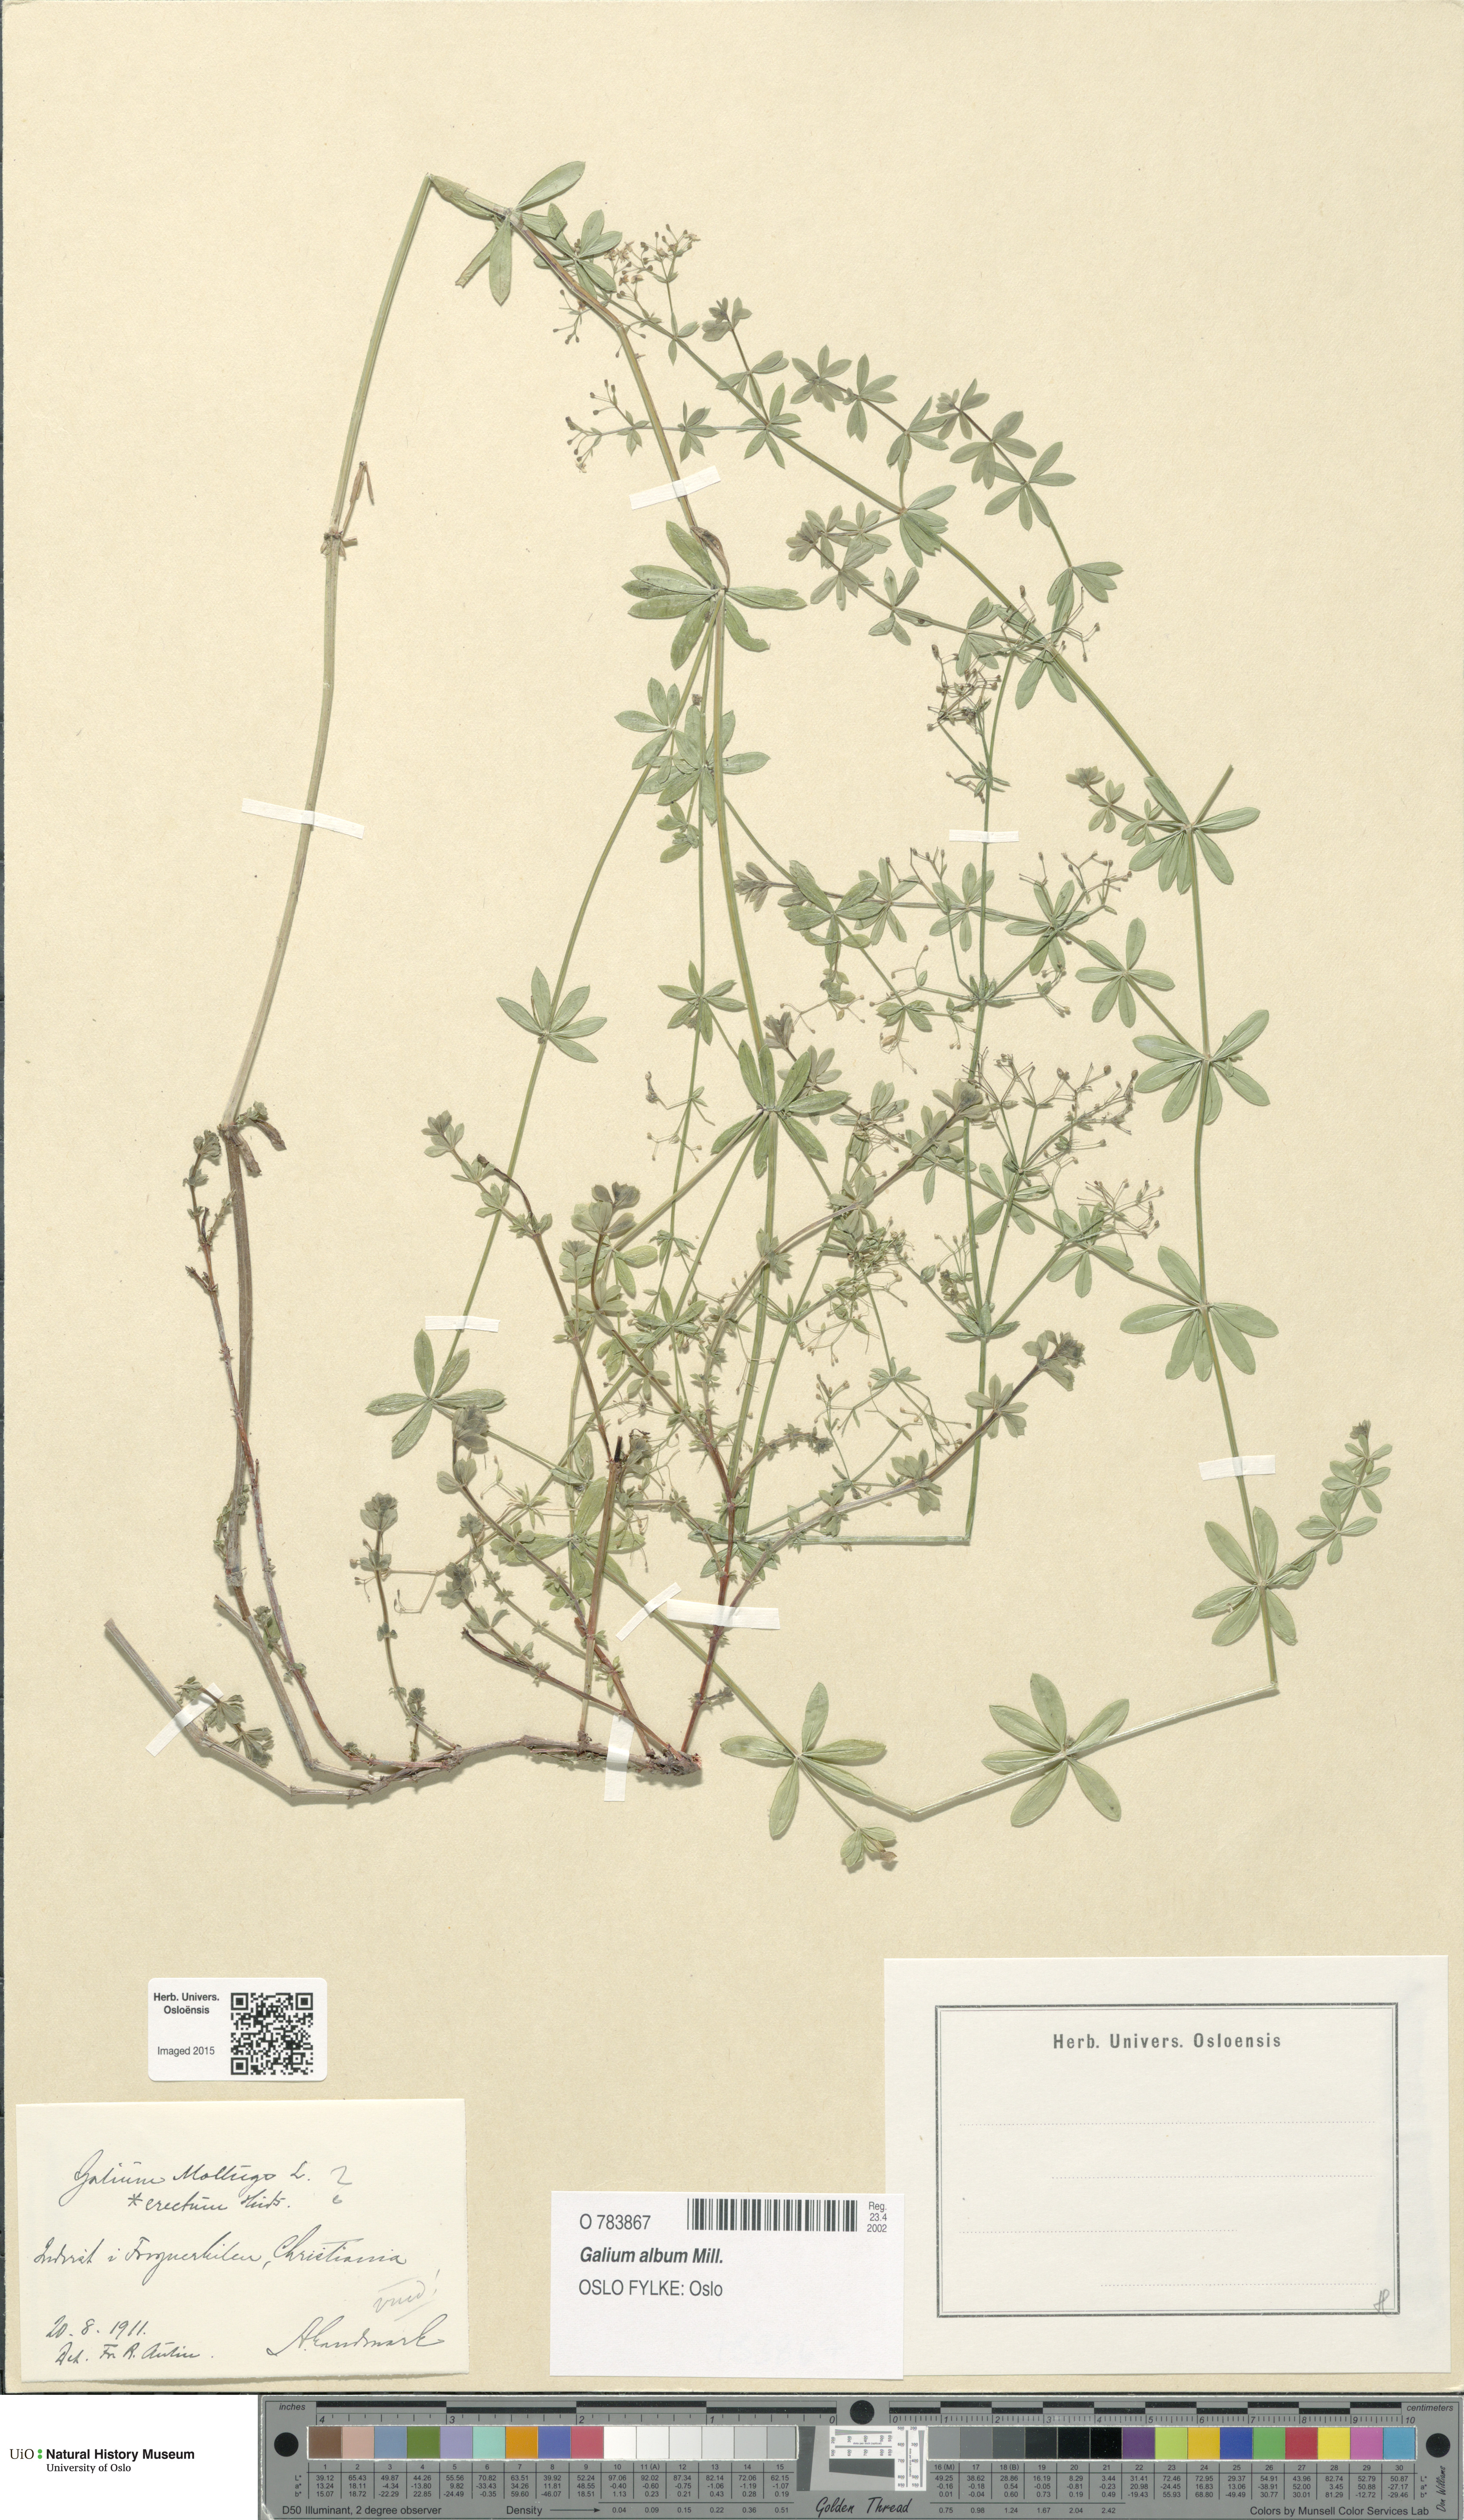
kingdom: Plantae
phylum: Tracheophyta
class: Magnoliopsida
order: Gentianales
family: Rubiaceae
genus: Galium
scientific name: Galium album
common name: White bedstraw
